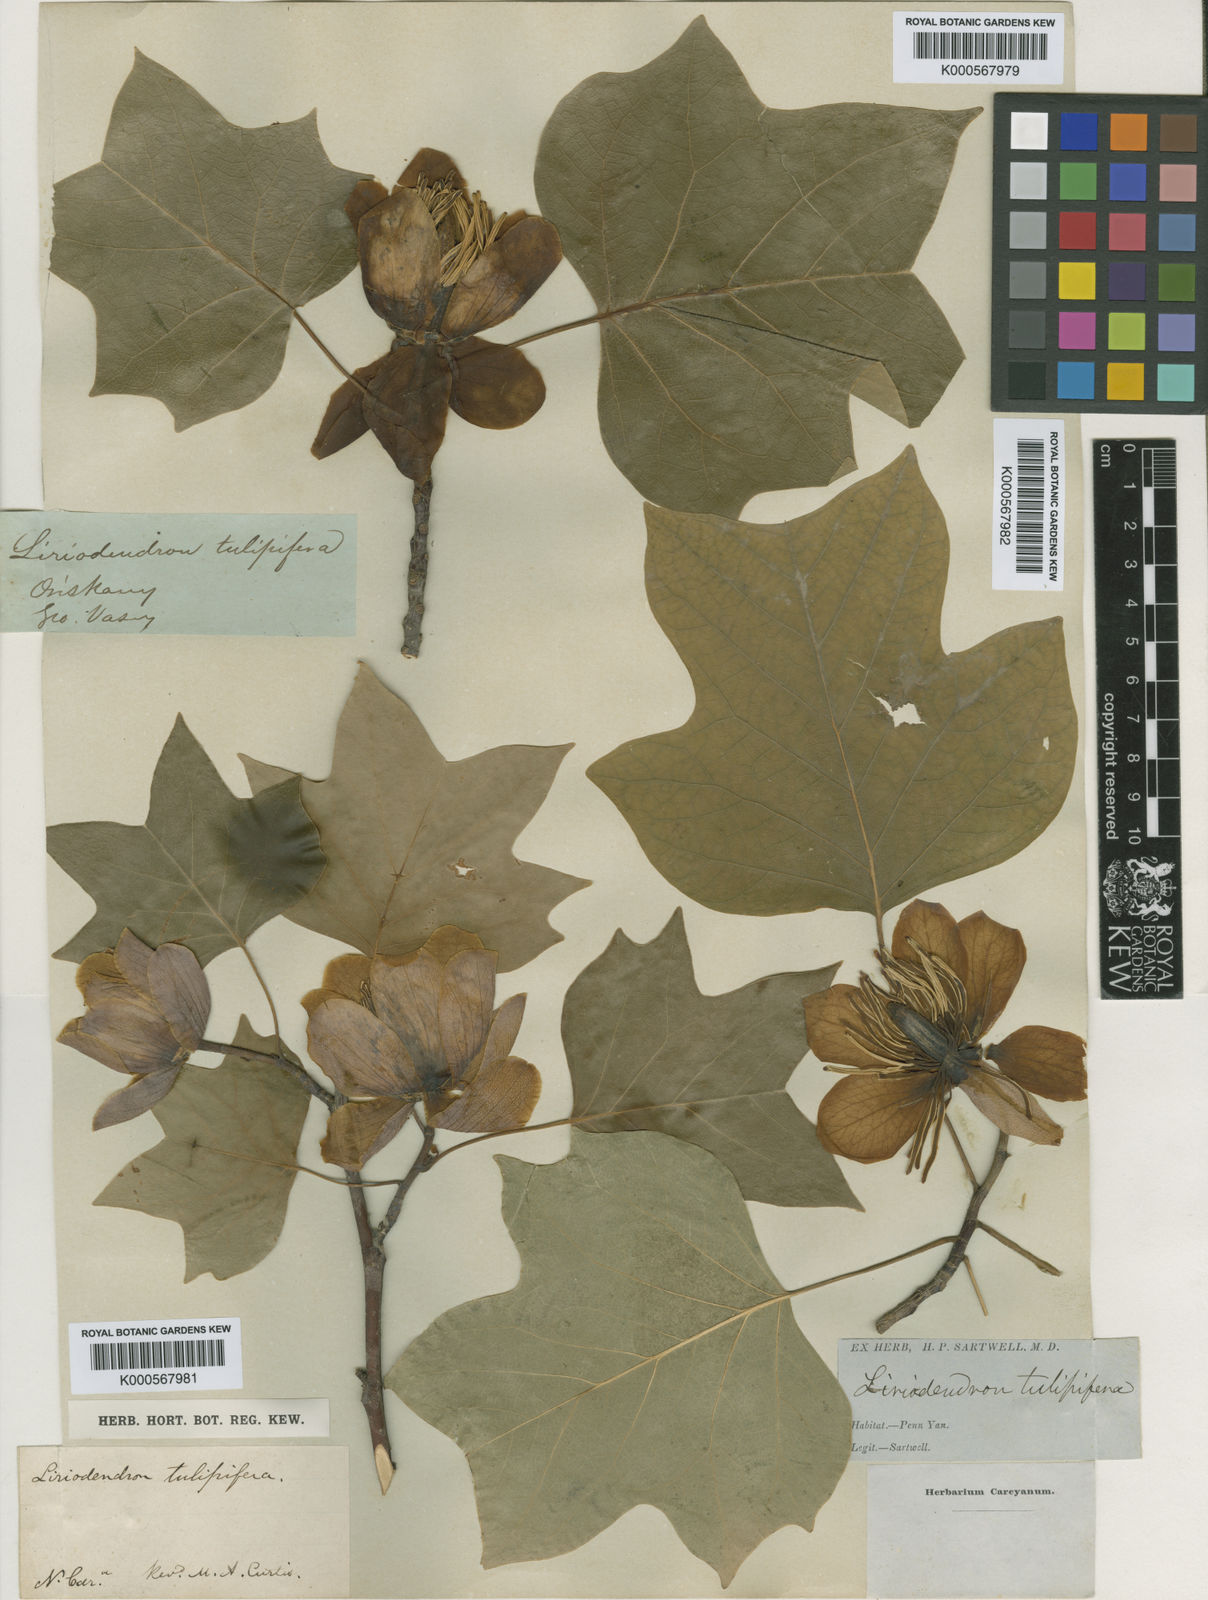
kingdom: Plantae
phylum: Tracheophyta
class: Magnoliopsida
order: Magnoliales
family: Magnoliaceae
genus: Liriodendron
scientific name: Liriodendron tulipifera
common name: Tulip tree
